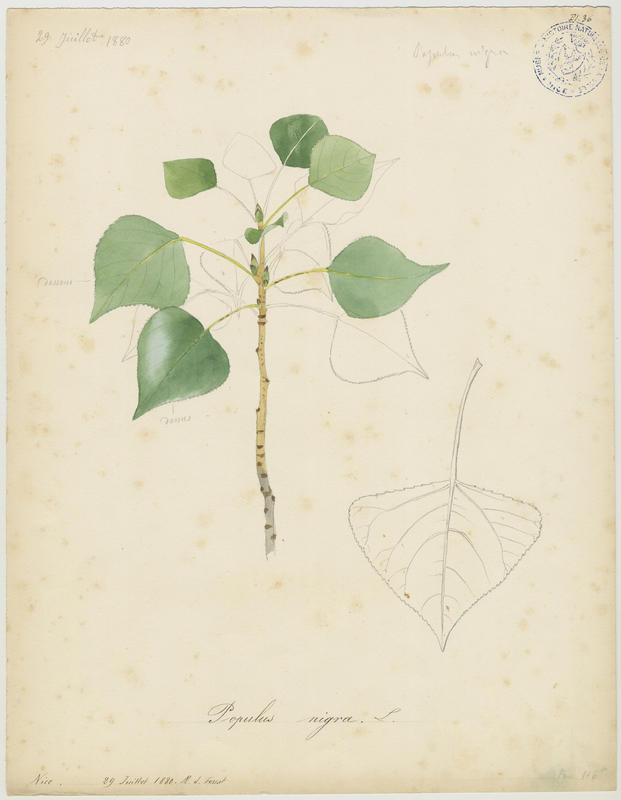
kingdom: Plantae
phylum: Tracheophyta
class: Magnoliopsida
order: Malpighiales
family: Salicaceae
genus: Populus
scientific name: Populus nigra
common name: Black poplar
